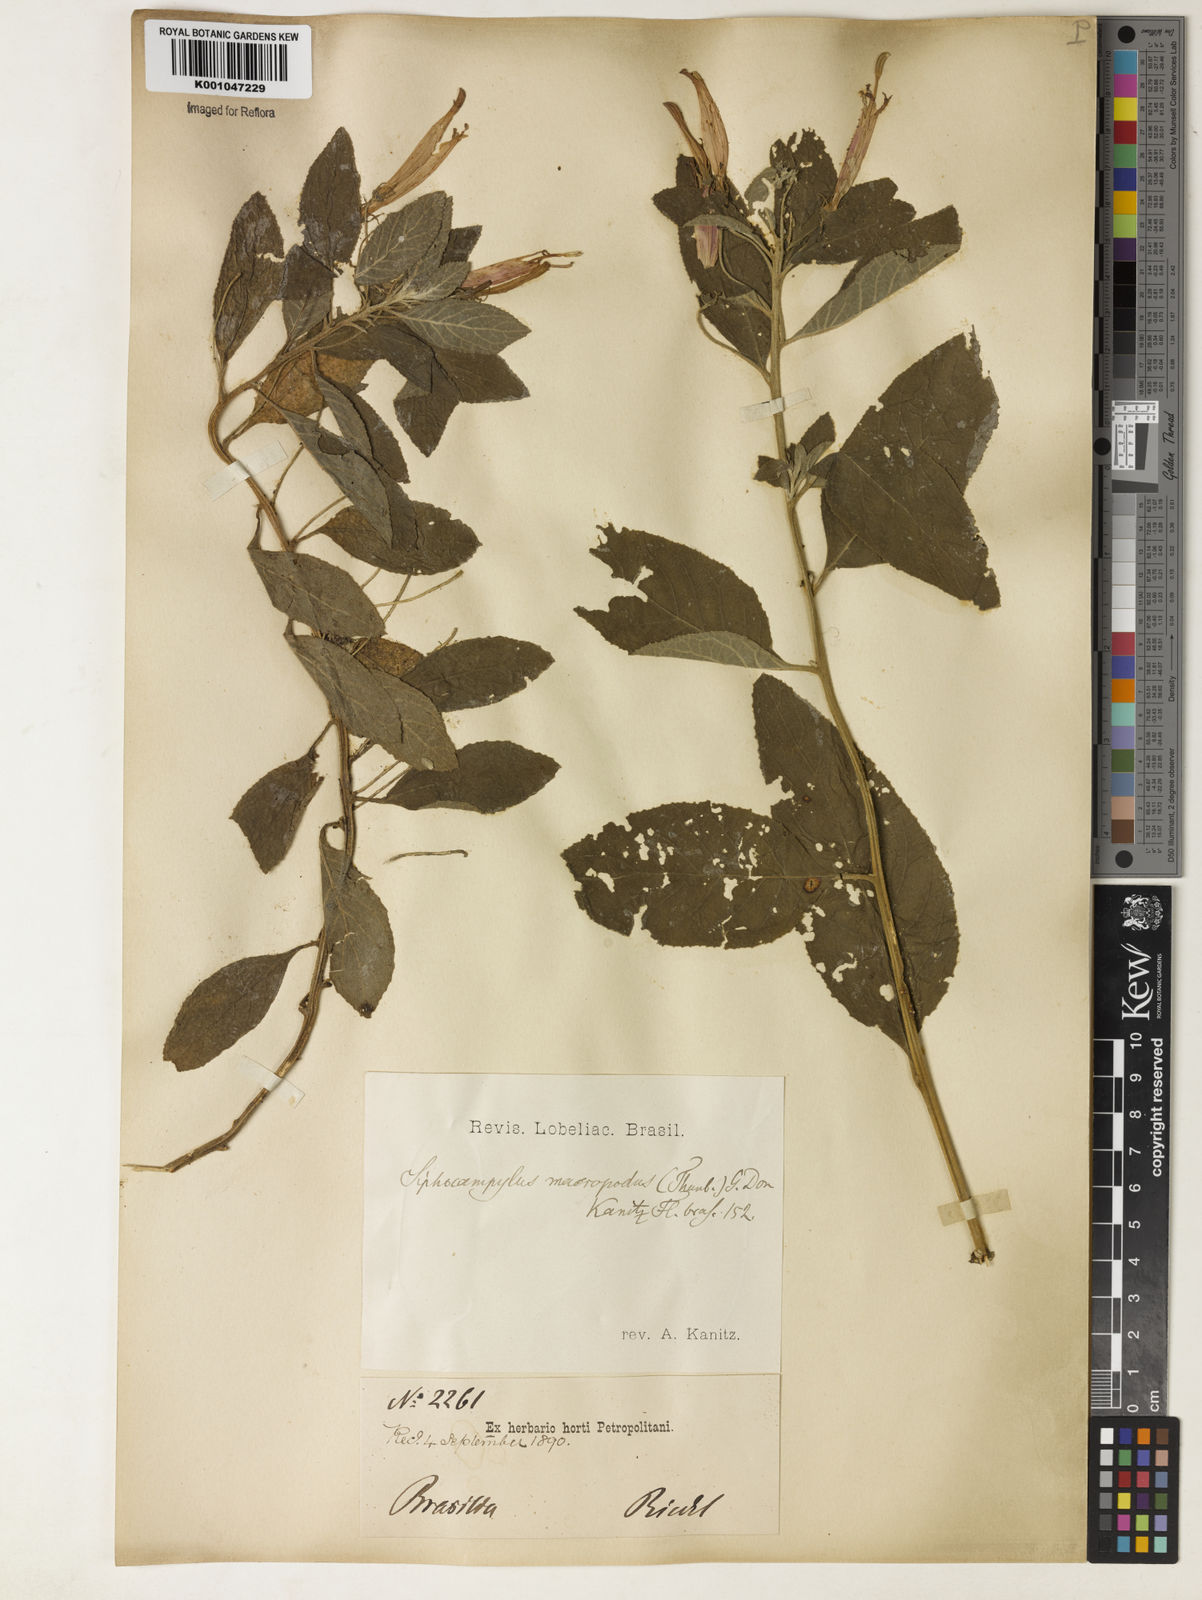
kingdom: Plantae
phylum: Tracheophyta
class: Magnoliopsida
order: Asterales
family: Campanulaceae
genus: Siphocampylus
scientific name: Siphocampylus macropodus
